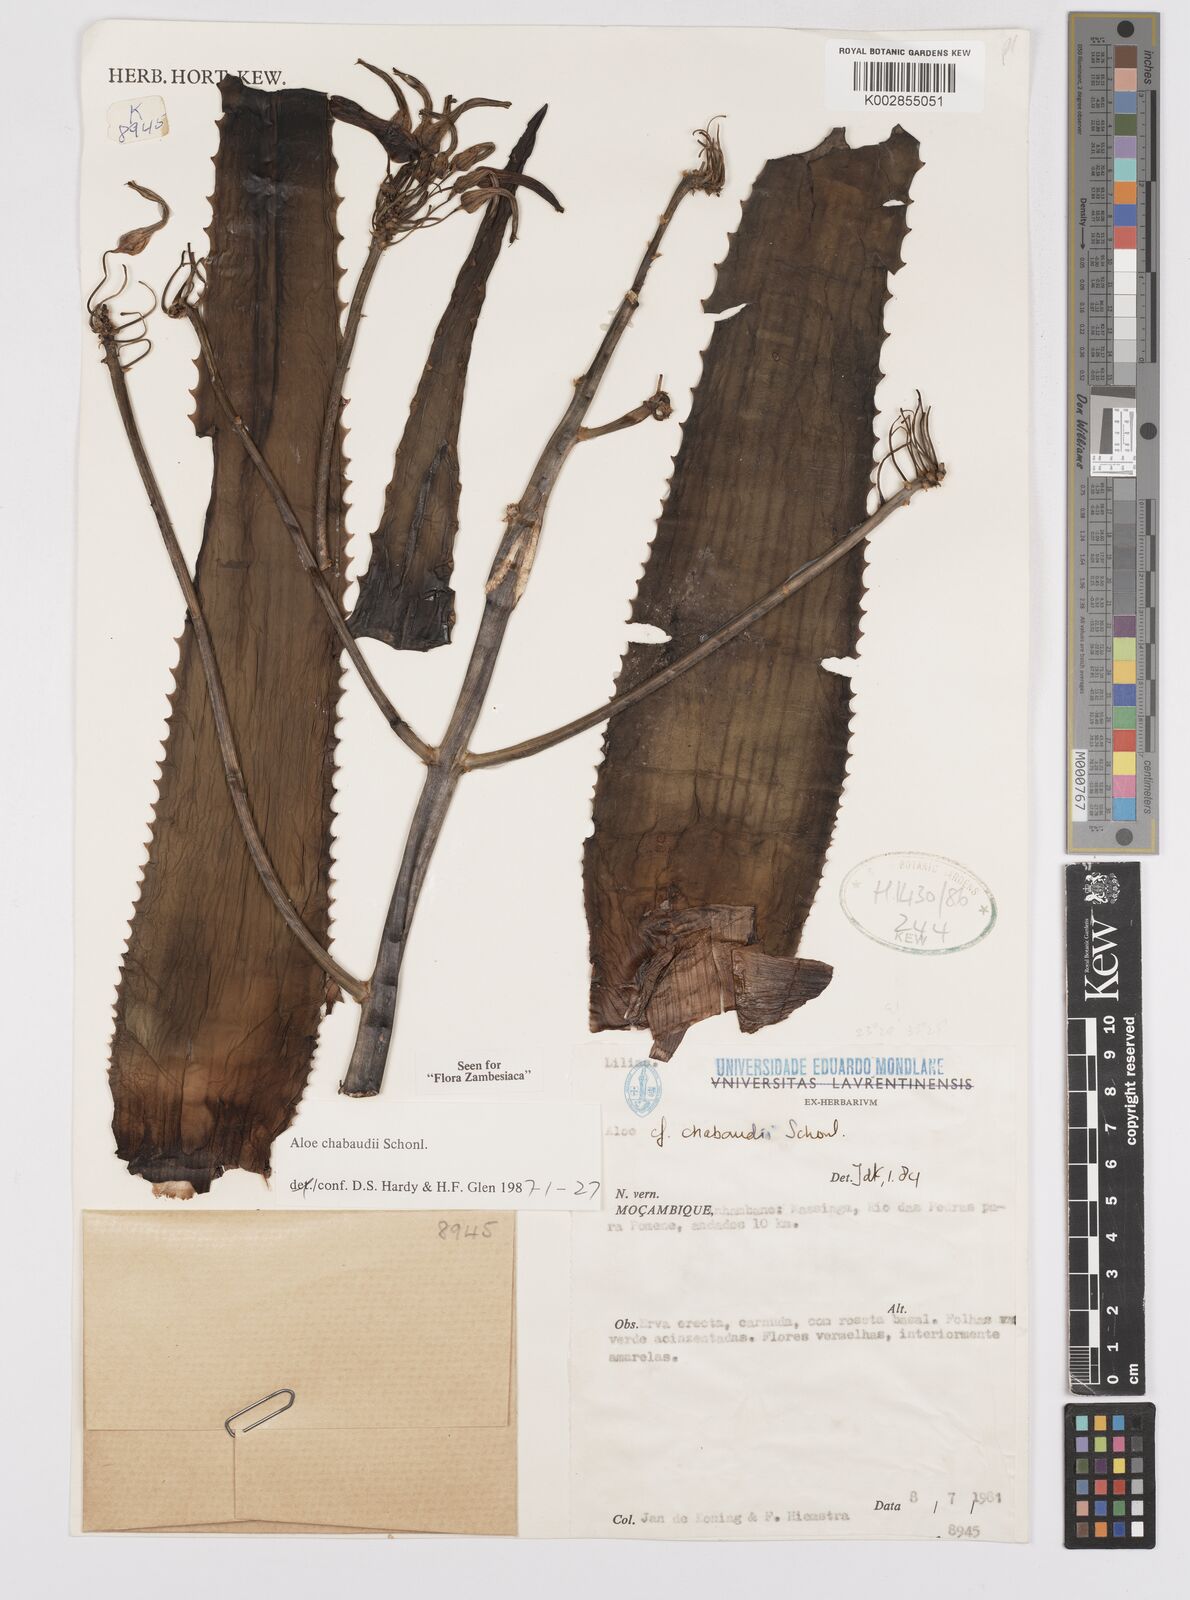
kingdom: Plantae
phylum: Tracheophyta
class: Liliopsida
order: Asparagales
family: Asphodelaceae
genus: Aloe
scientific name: Aloe chabaudii
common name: Chabaud's aloe
